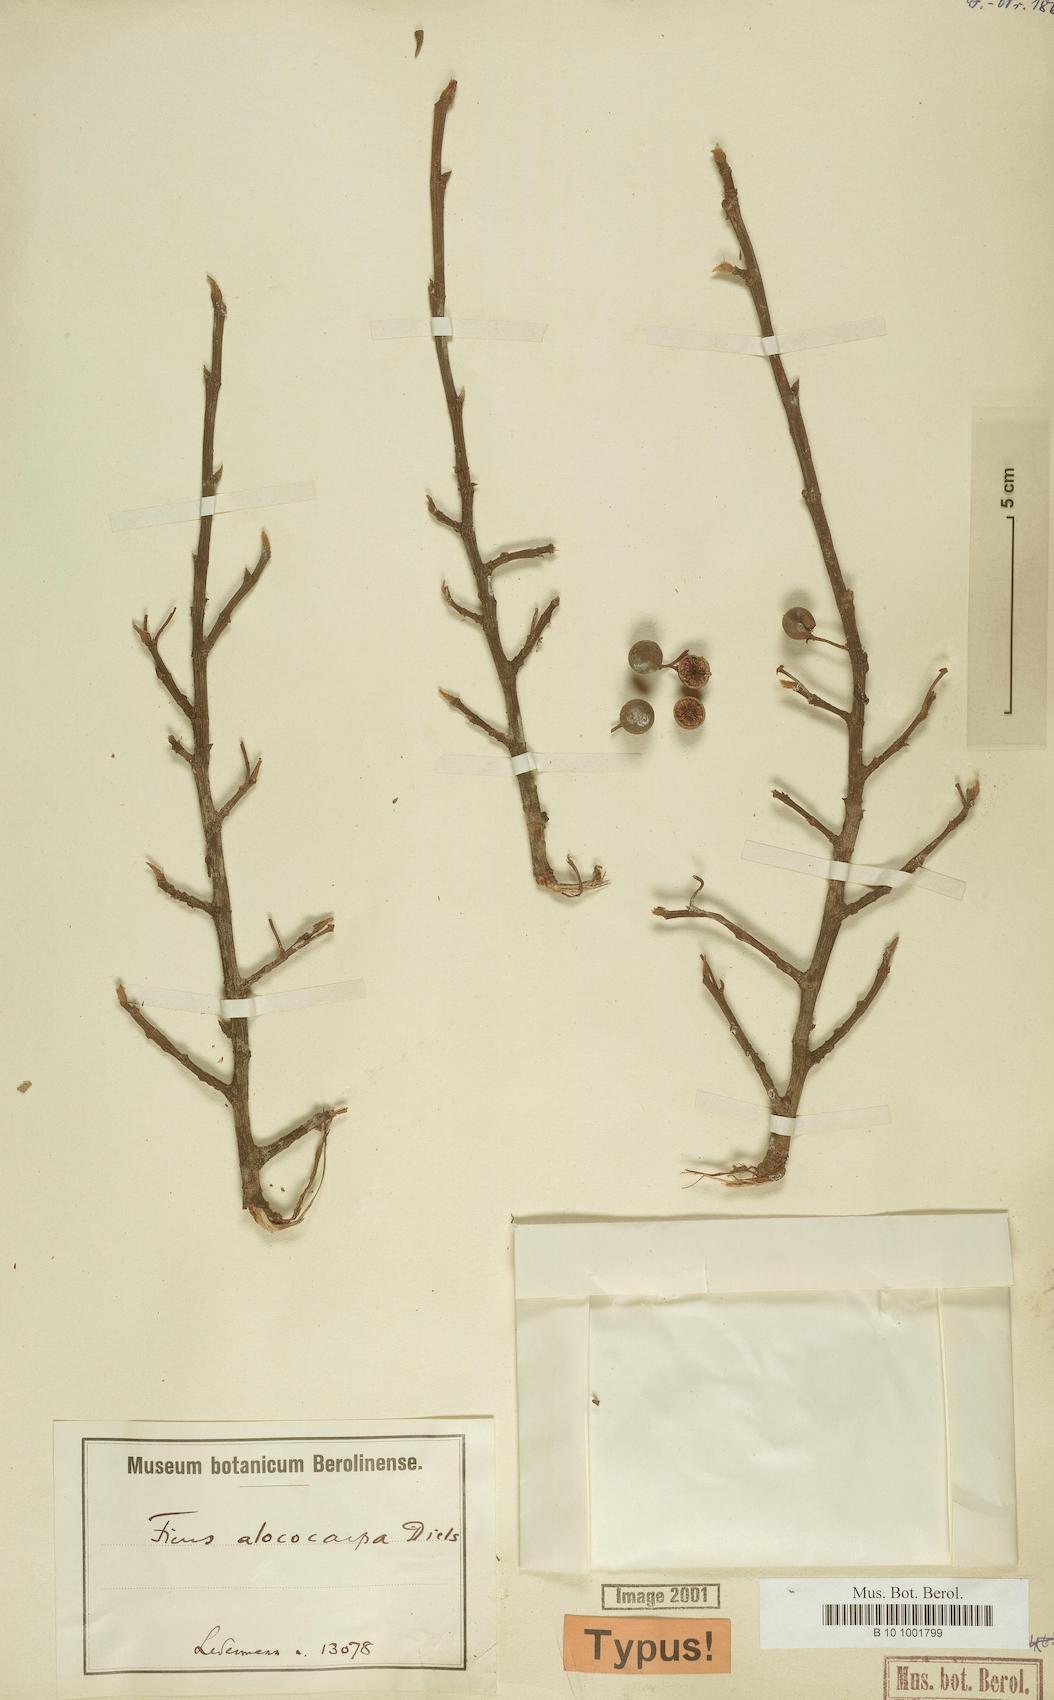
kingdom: Plantae
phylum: Tracheophyta
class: Magnoliopsida
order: Rosales
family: Moraceae
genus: Ficus
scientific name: Ficus pleiadenia
